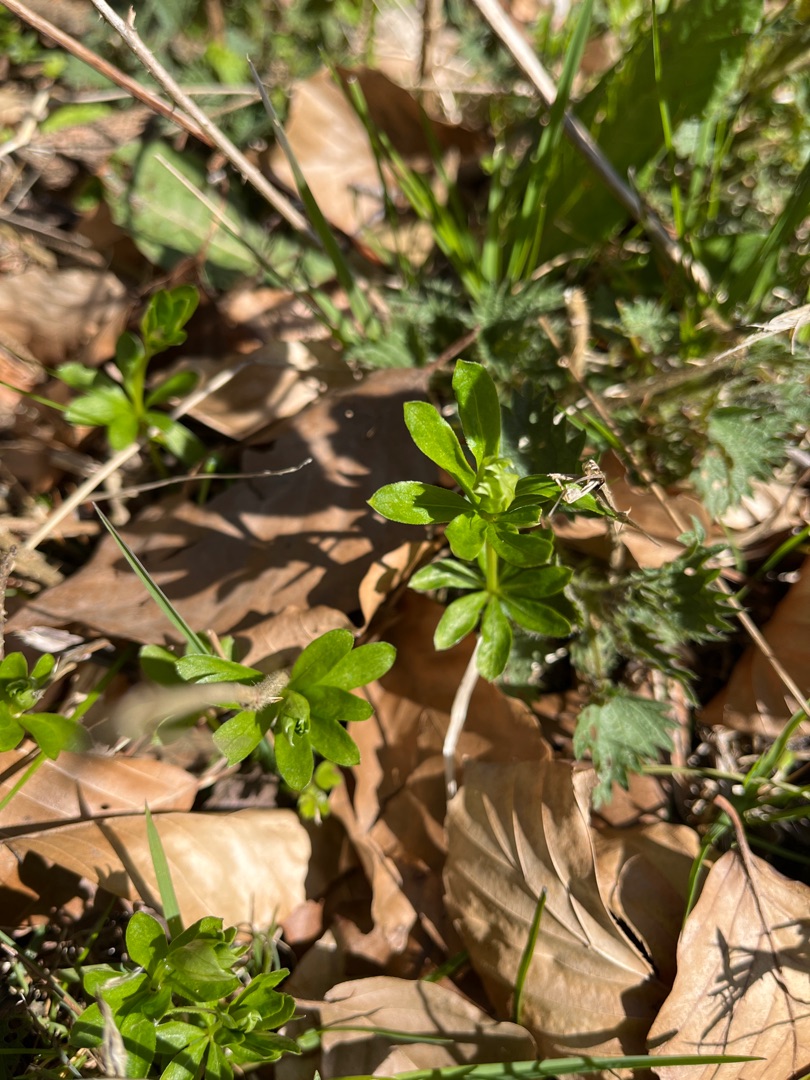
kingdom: Plantae
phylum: Tracheophyta
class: Magnoliopsida
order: Gentianales
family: Rubiaceae
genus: Galium
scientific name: Galium odoratum
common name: Skovmærke
